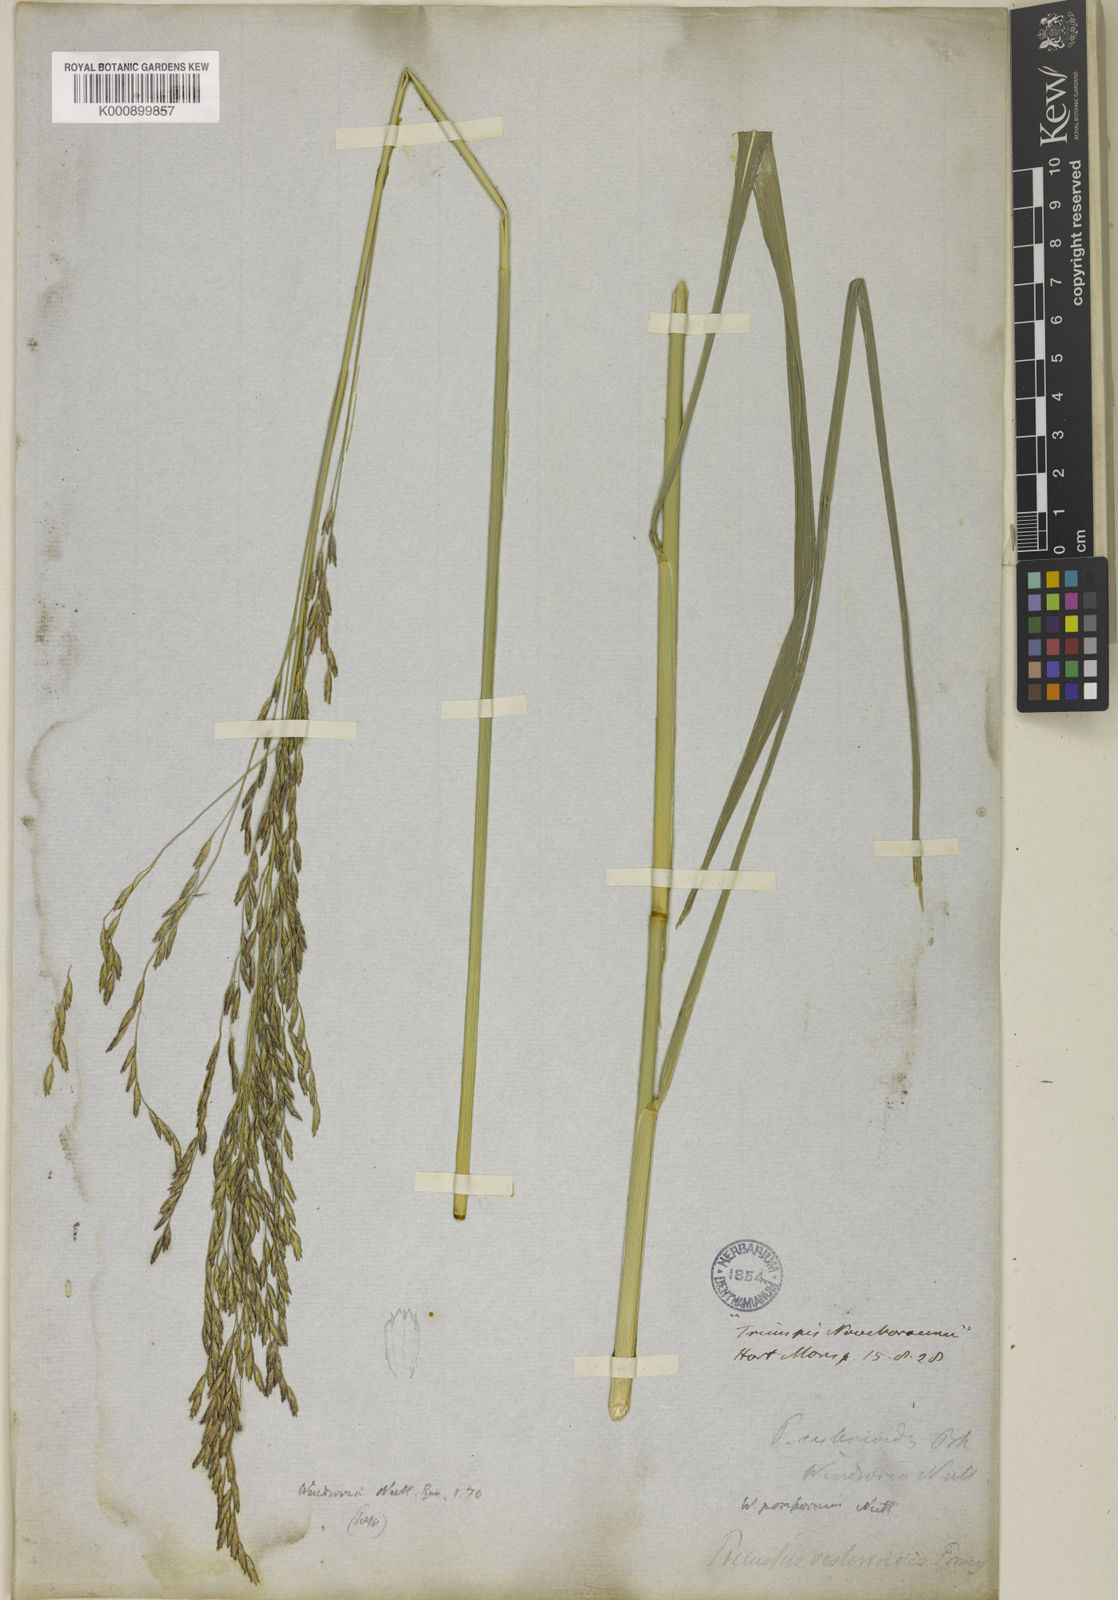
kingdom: Plantae
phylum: Tracheophyta
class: Liliopsida
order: Poales
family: Poaceae
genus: Tridens
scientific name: Tridens flavus
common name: Purpletop
